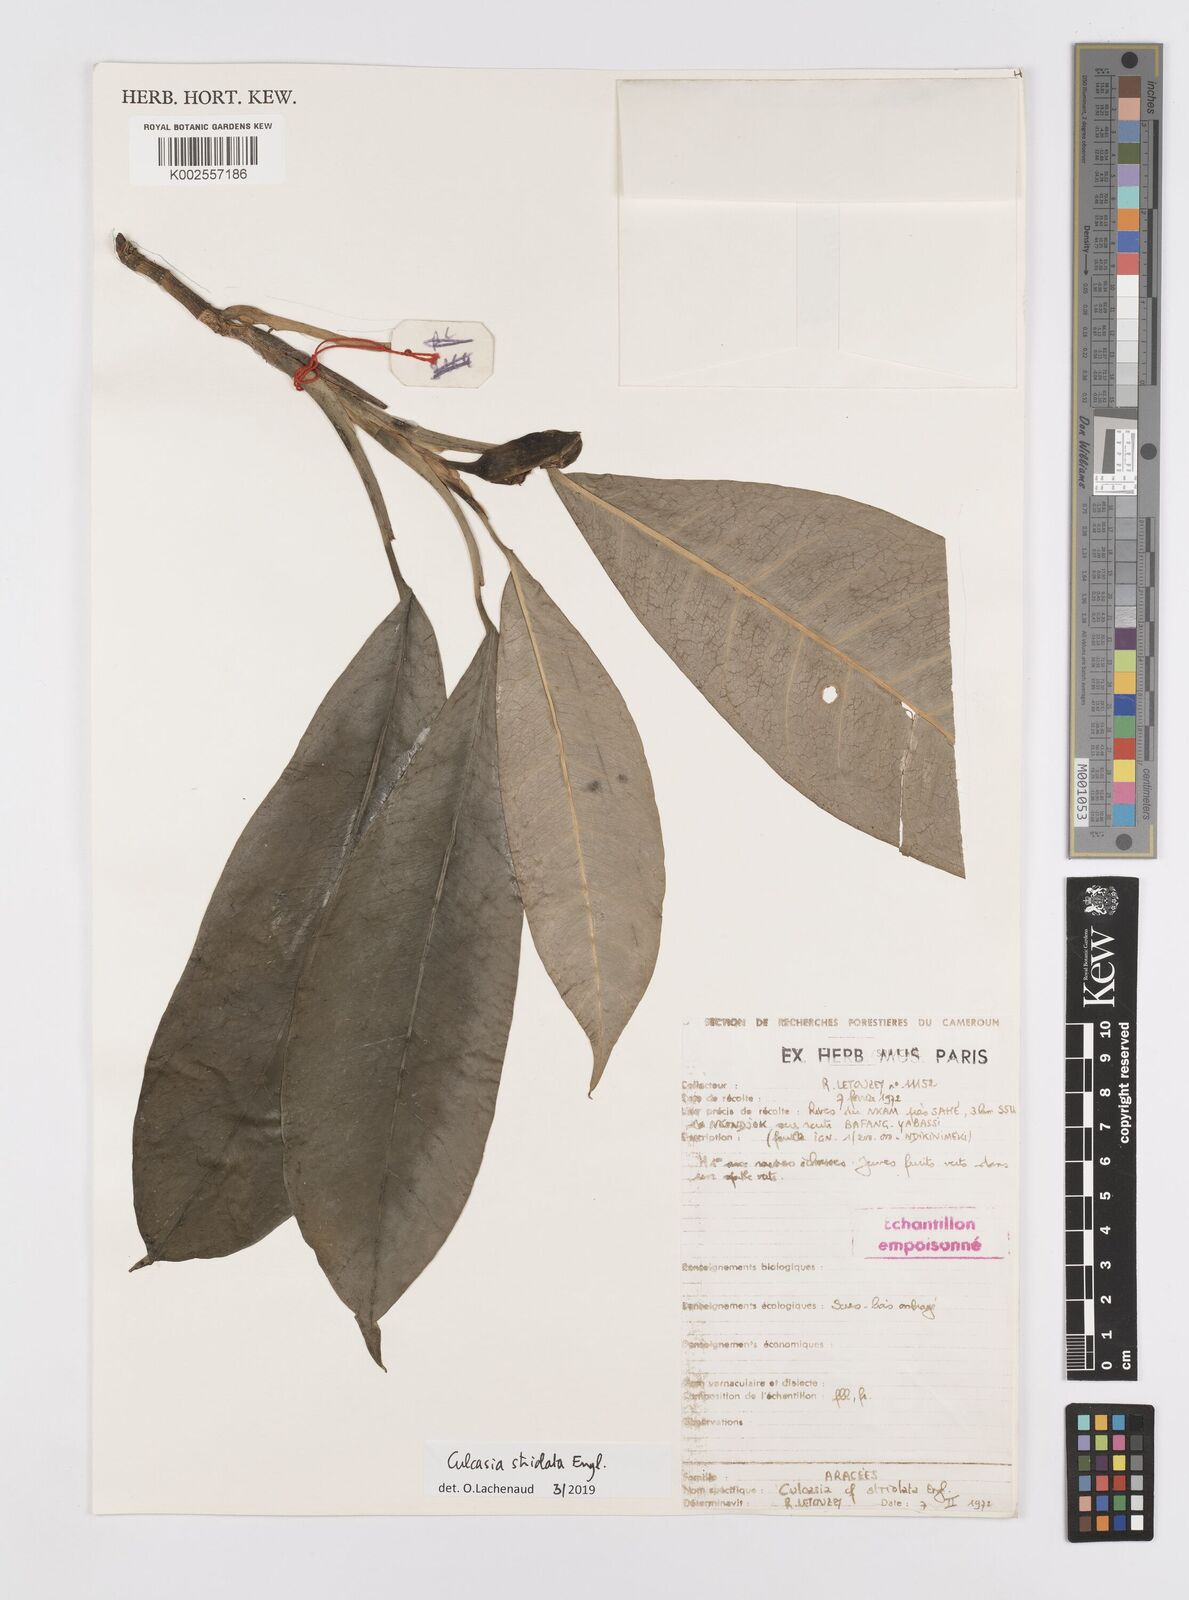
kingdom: Plantae
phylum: Tracheophyta
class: Liliopsida
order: Alismatales
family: Araceae
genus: Culcasia
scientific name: Culcasia striolata
